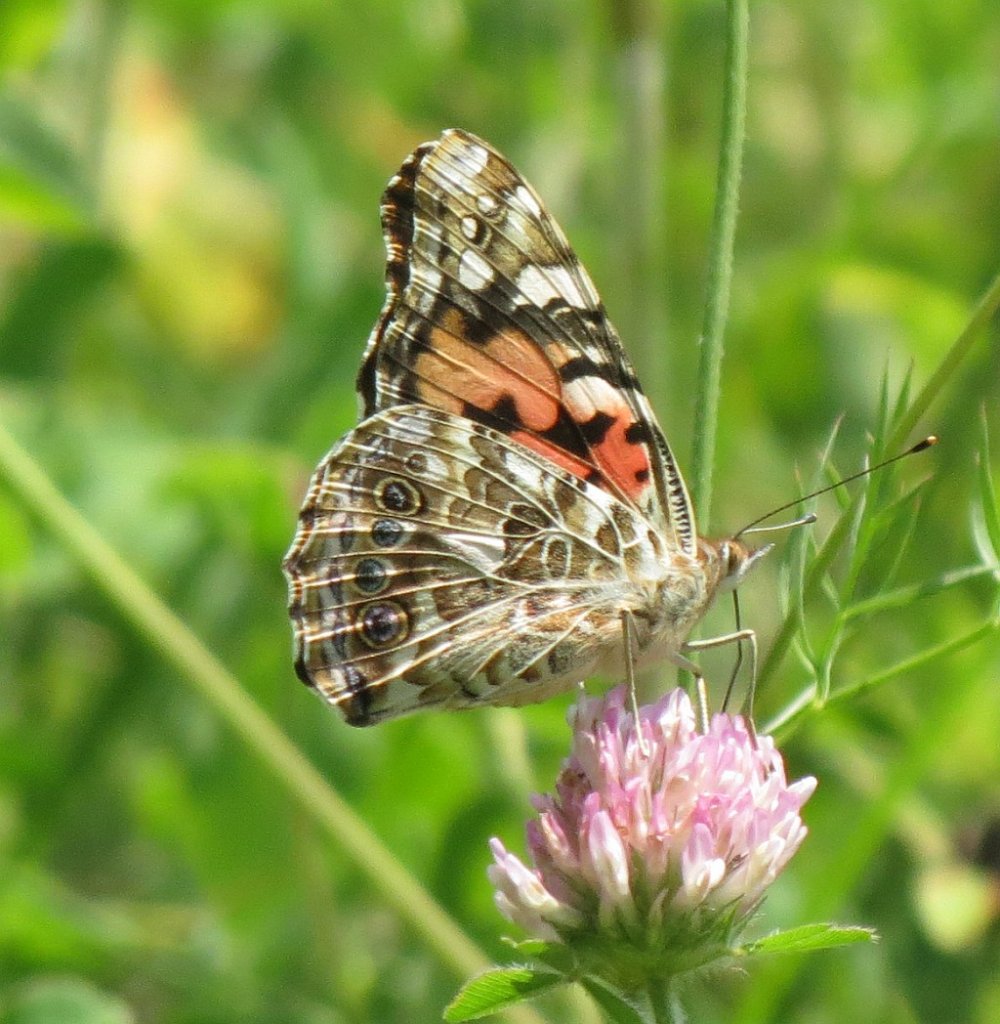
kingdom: Animalia
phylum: Arthropoda
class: Insecta
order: Lepidoptera
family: Nymphalidae
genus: Vanessa
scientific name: Vanessa cardui
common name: Painted Lady
